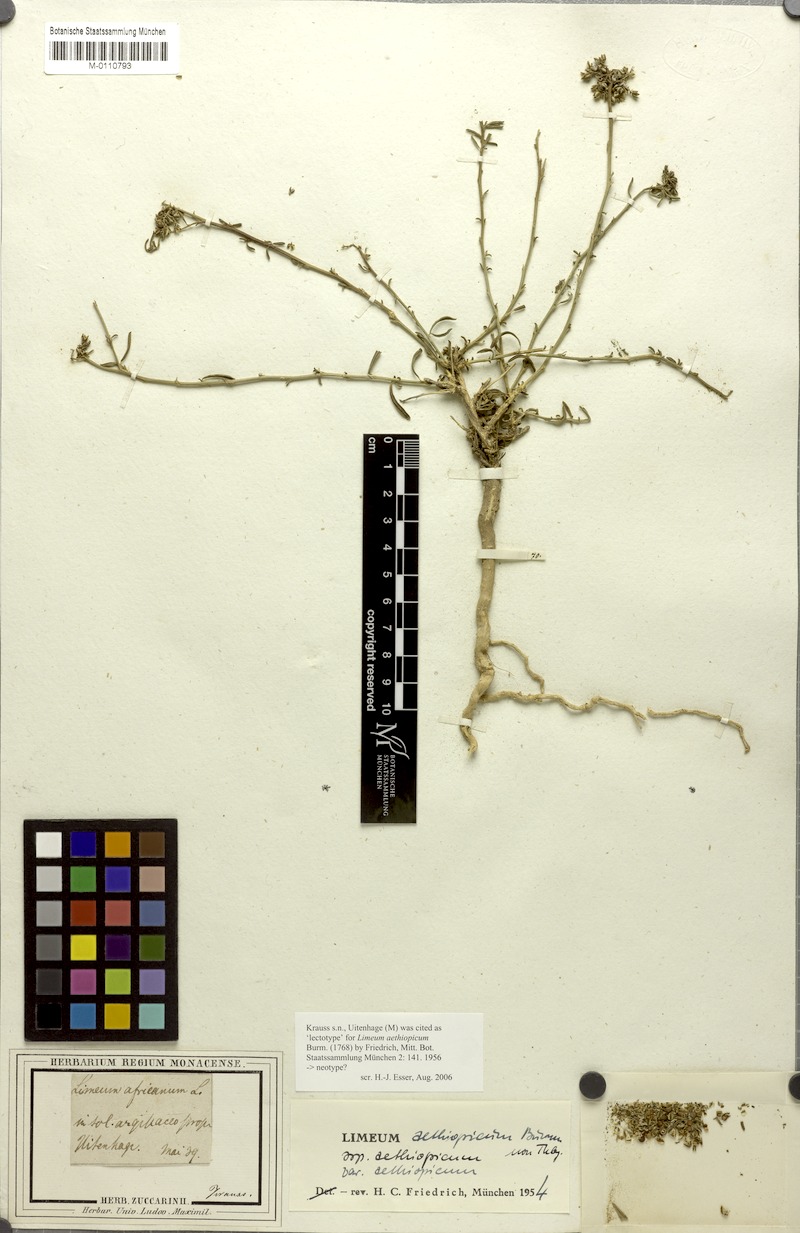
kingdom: Plantae
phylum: Tracheophyta
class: Magnoliopsida
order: Caryophyllales
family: Limeaceae
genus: Limeum
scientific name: Limeum aethiopicum
